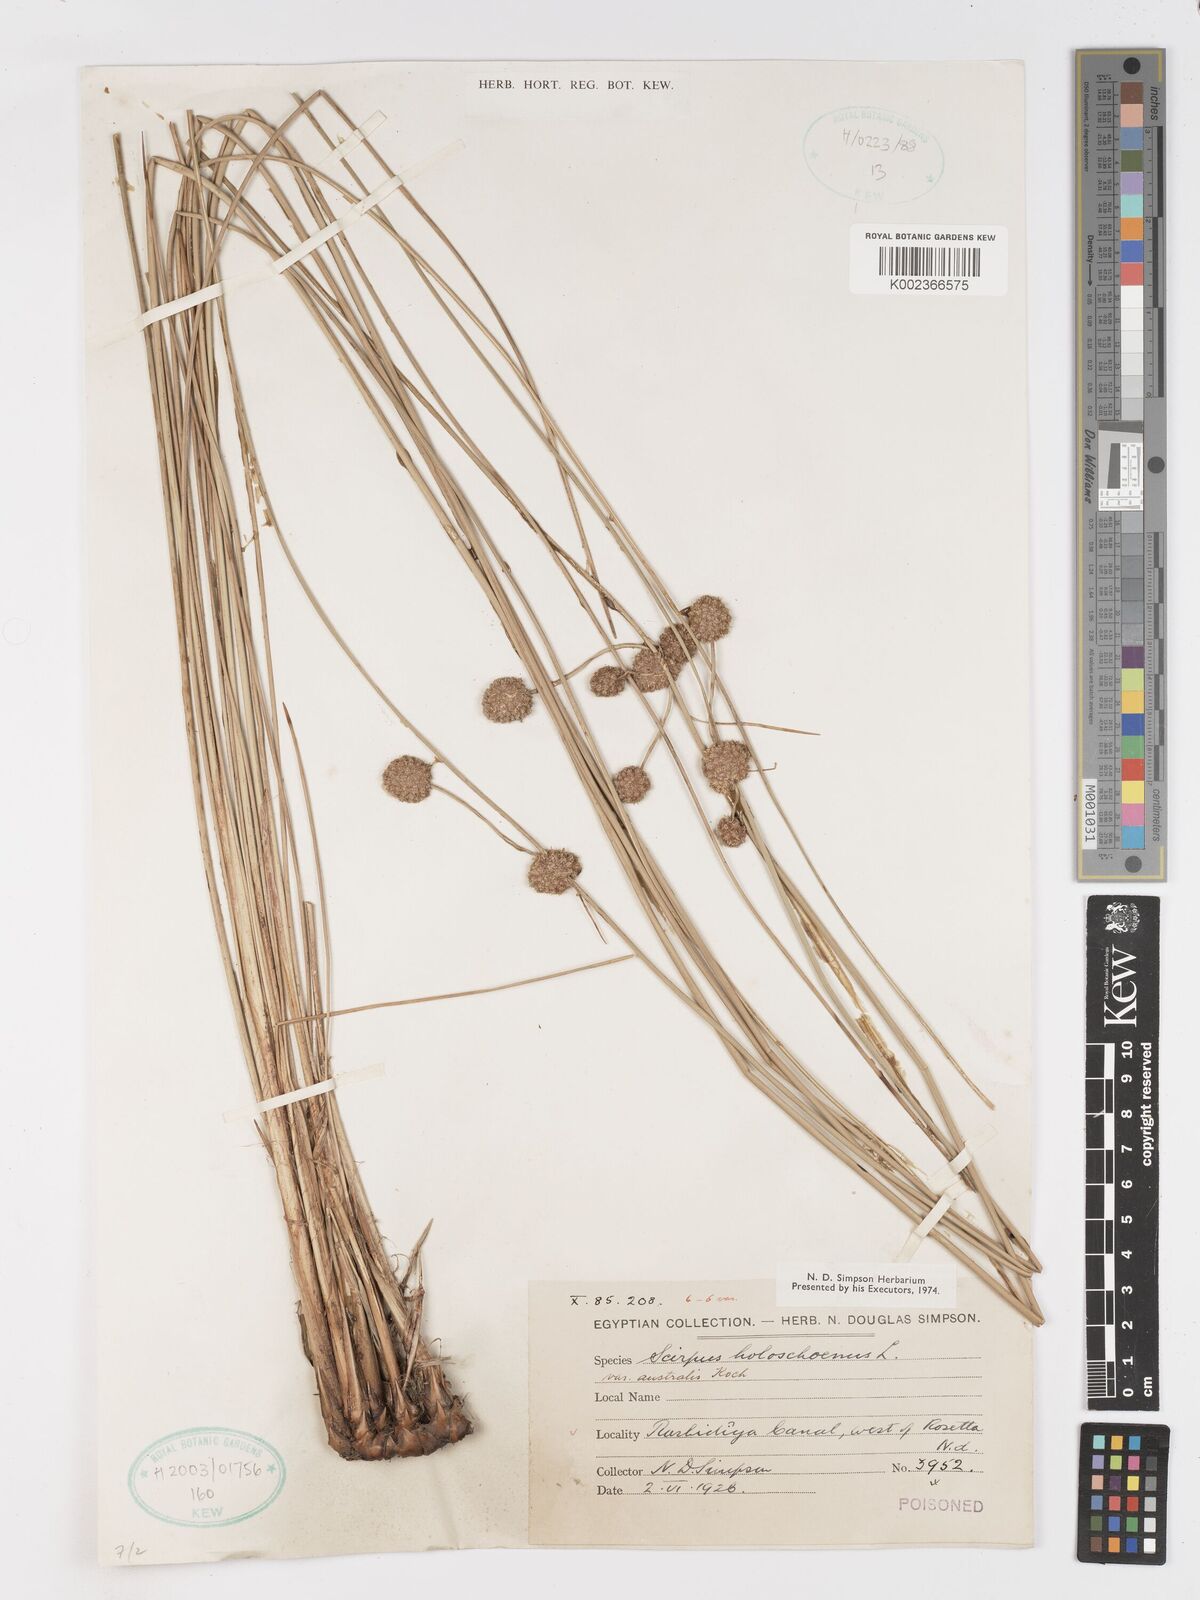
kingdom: Plantae
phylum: Tracheophyta
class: Liliopsida
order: Poales
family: Cyperaceae
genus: Scirpoides
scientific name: Scirpoides holoschoenus
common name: Round-headed club-rush
